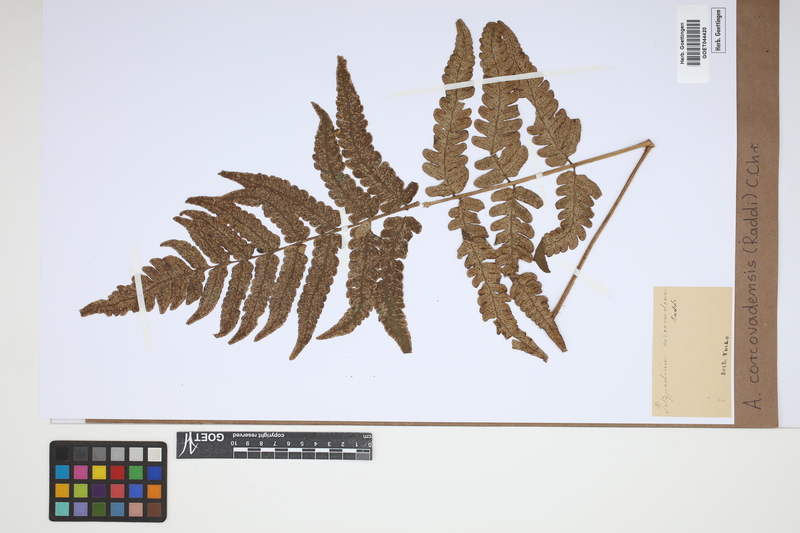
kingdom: Plantae
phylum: Tracheophyta
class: Polypodiopsida
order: Cyatheales
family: Cyatheaceae
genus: Cyathea
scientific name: Cyathea corcovadensis
